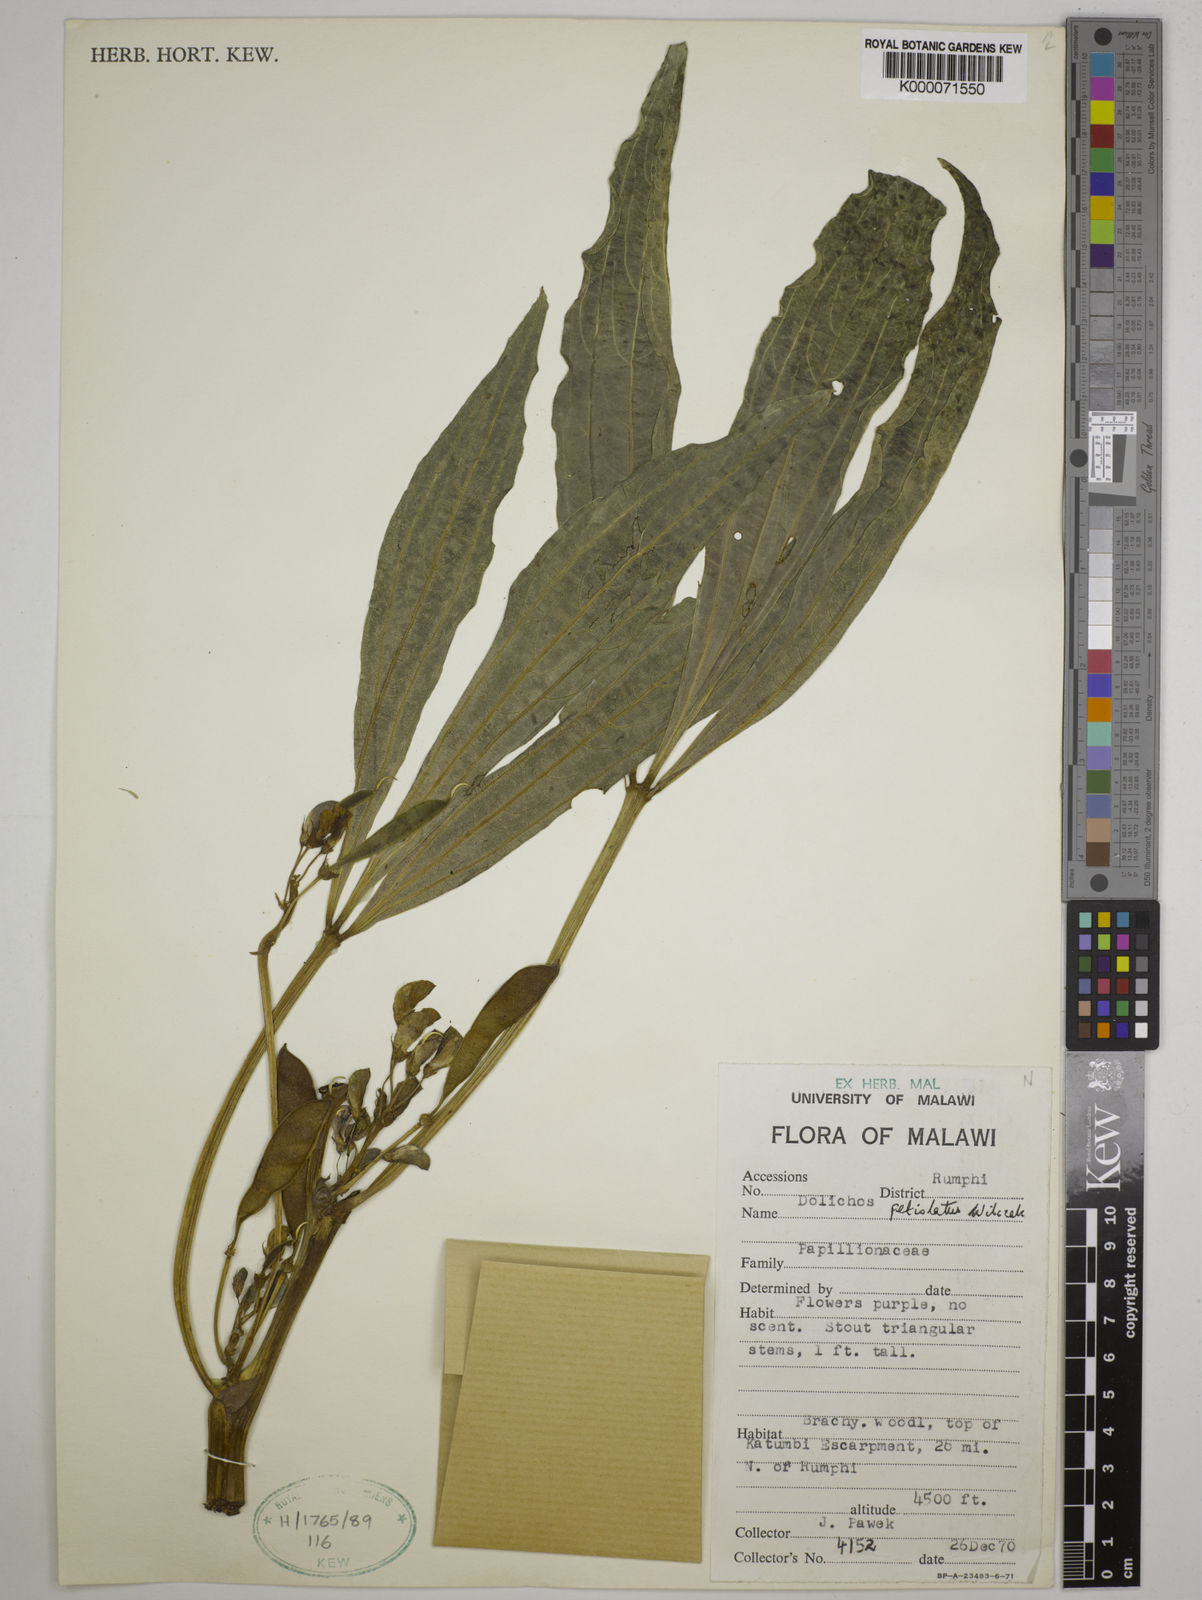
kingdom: Plantae
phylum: Tracheophyta
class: Magnoliopsida
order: Fabales
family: Fabaceae
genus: Dolichos
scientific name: Dolichos petiolatus
